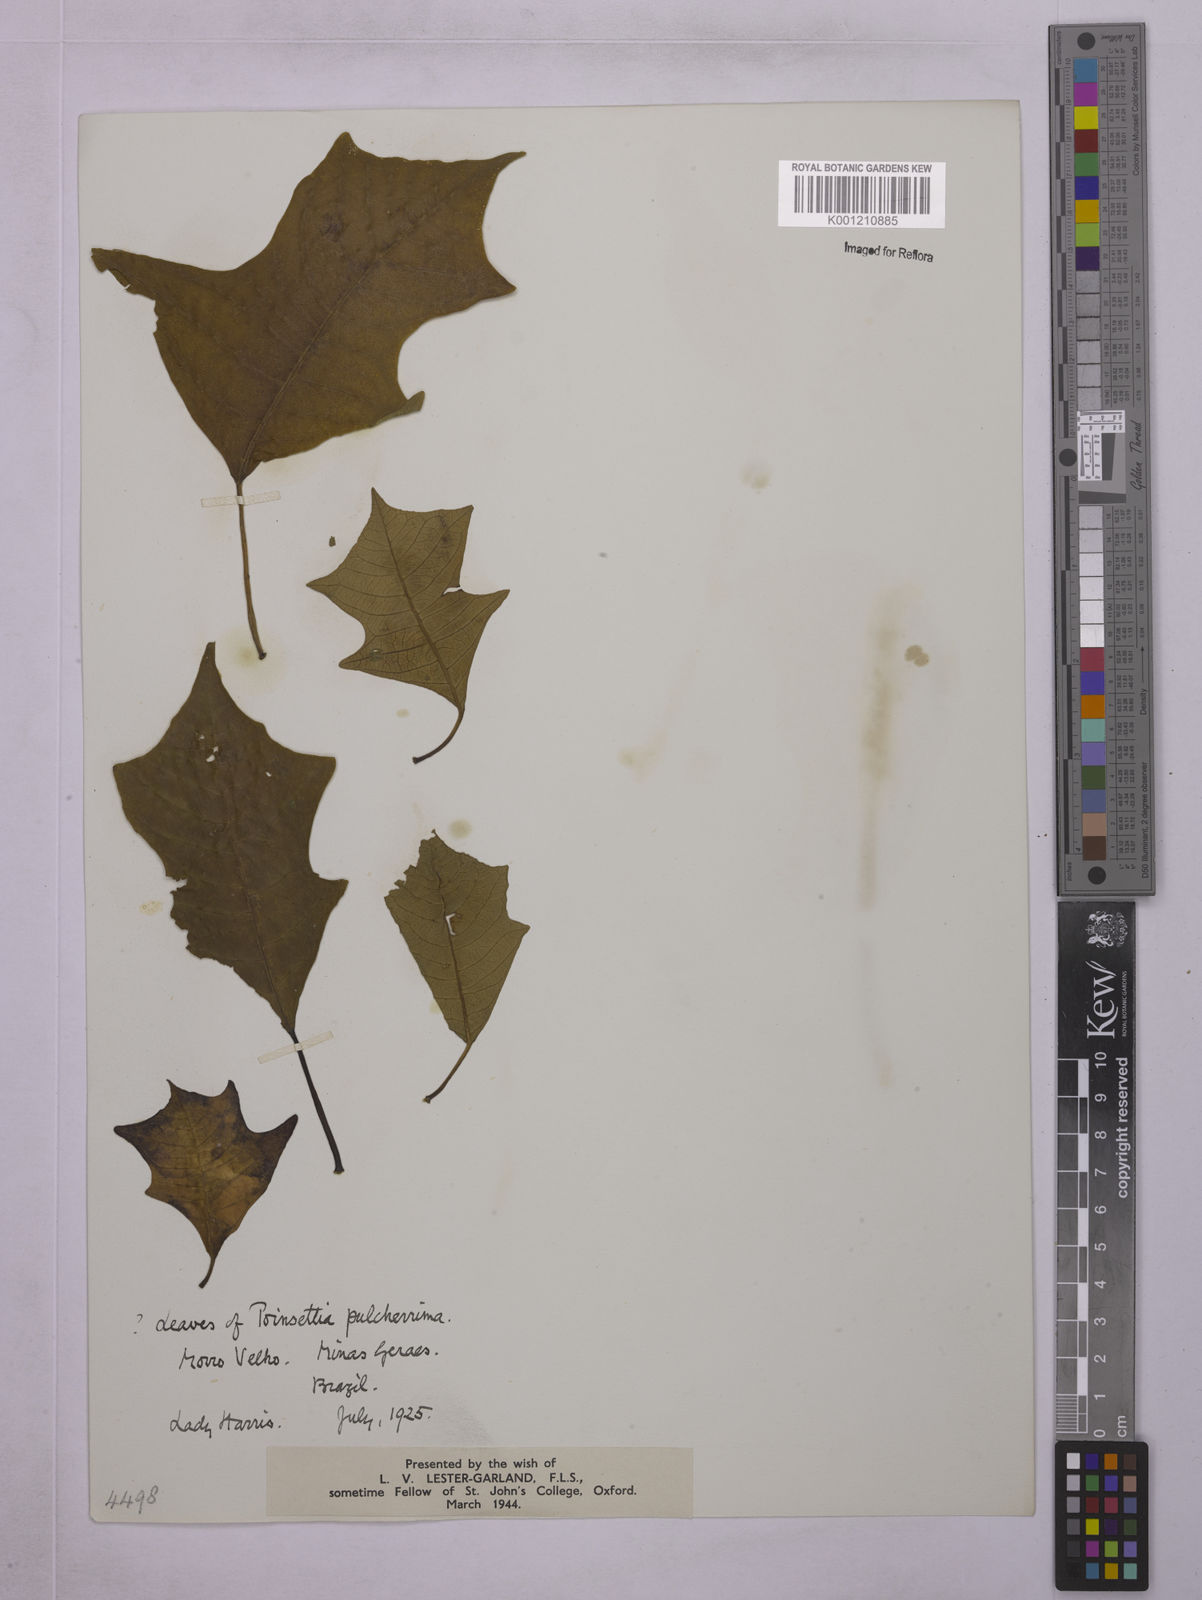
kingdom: Plantae
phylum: Tracheophyta
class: Magnoliopsida
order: Malpighiales
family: Euphorbiaceae
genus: Euphorbia
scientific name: Euphorbia
